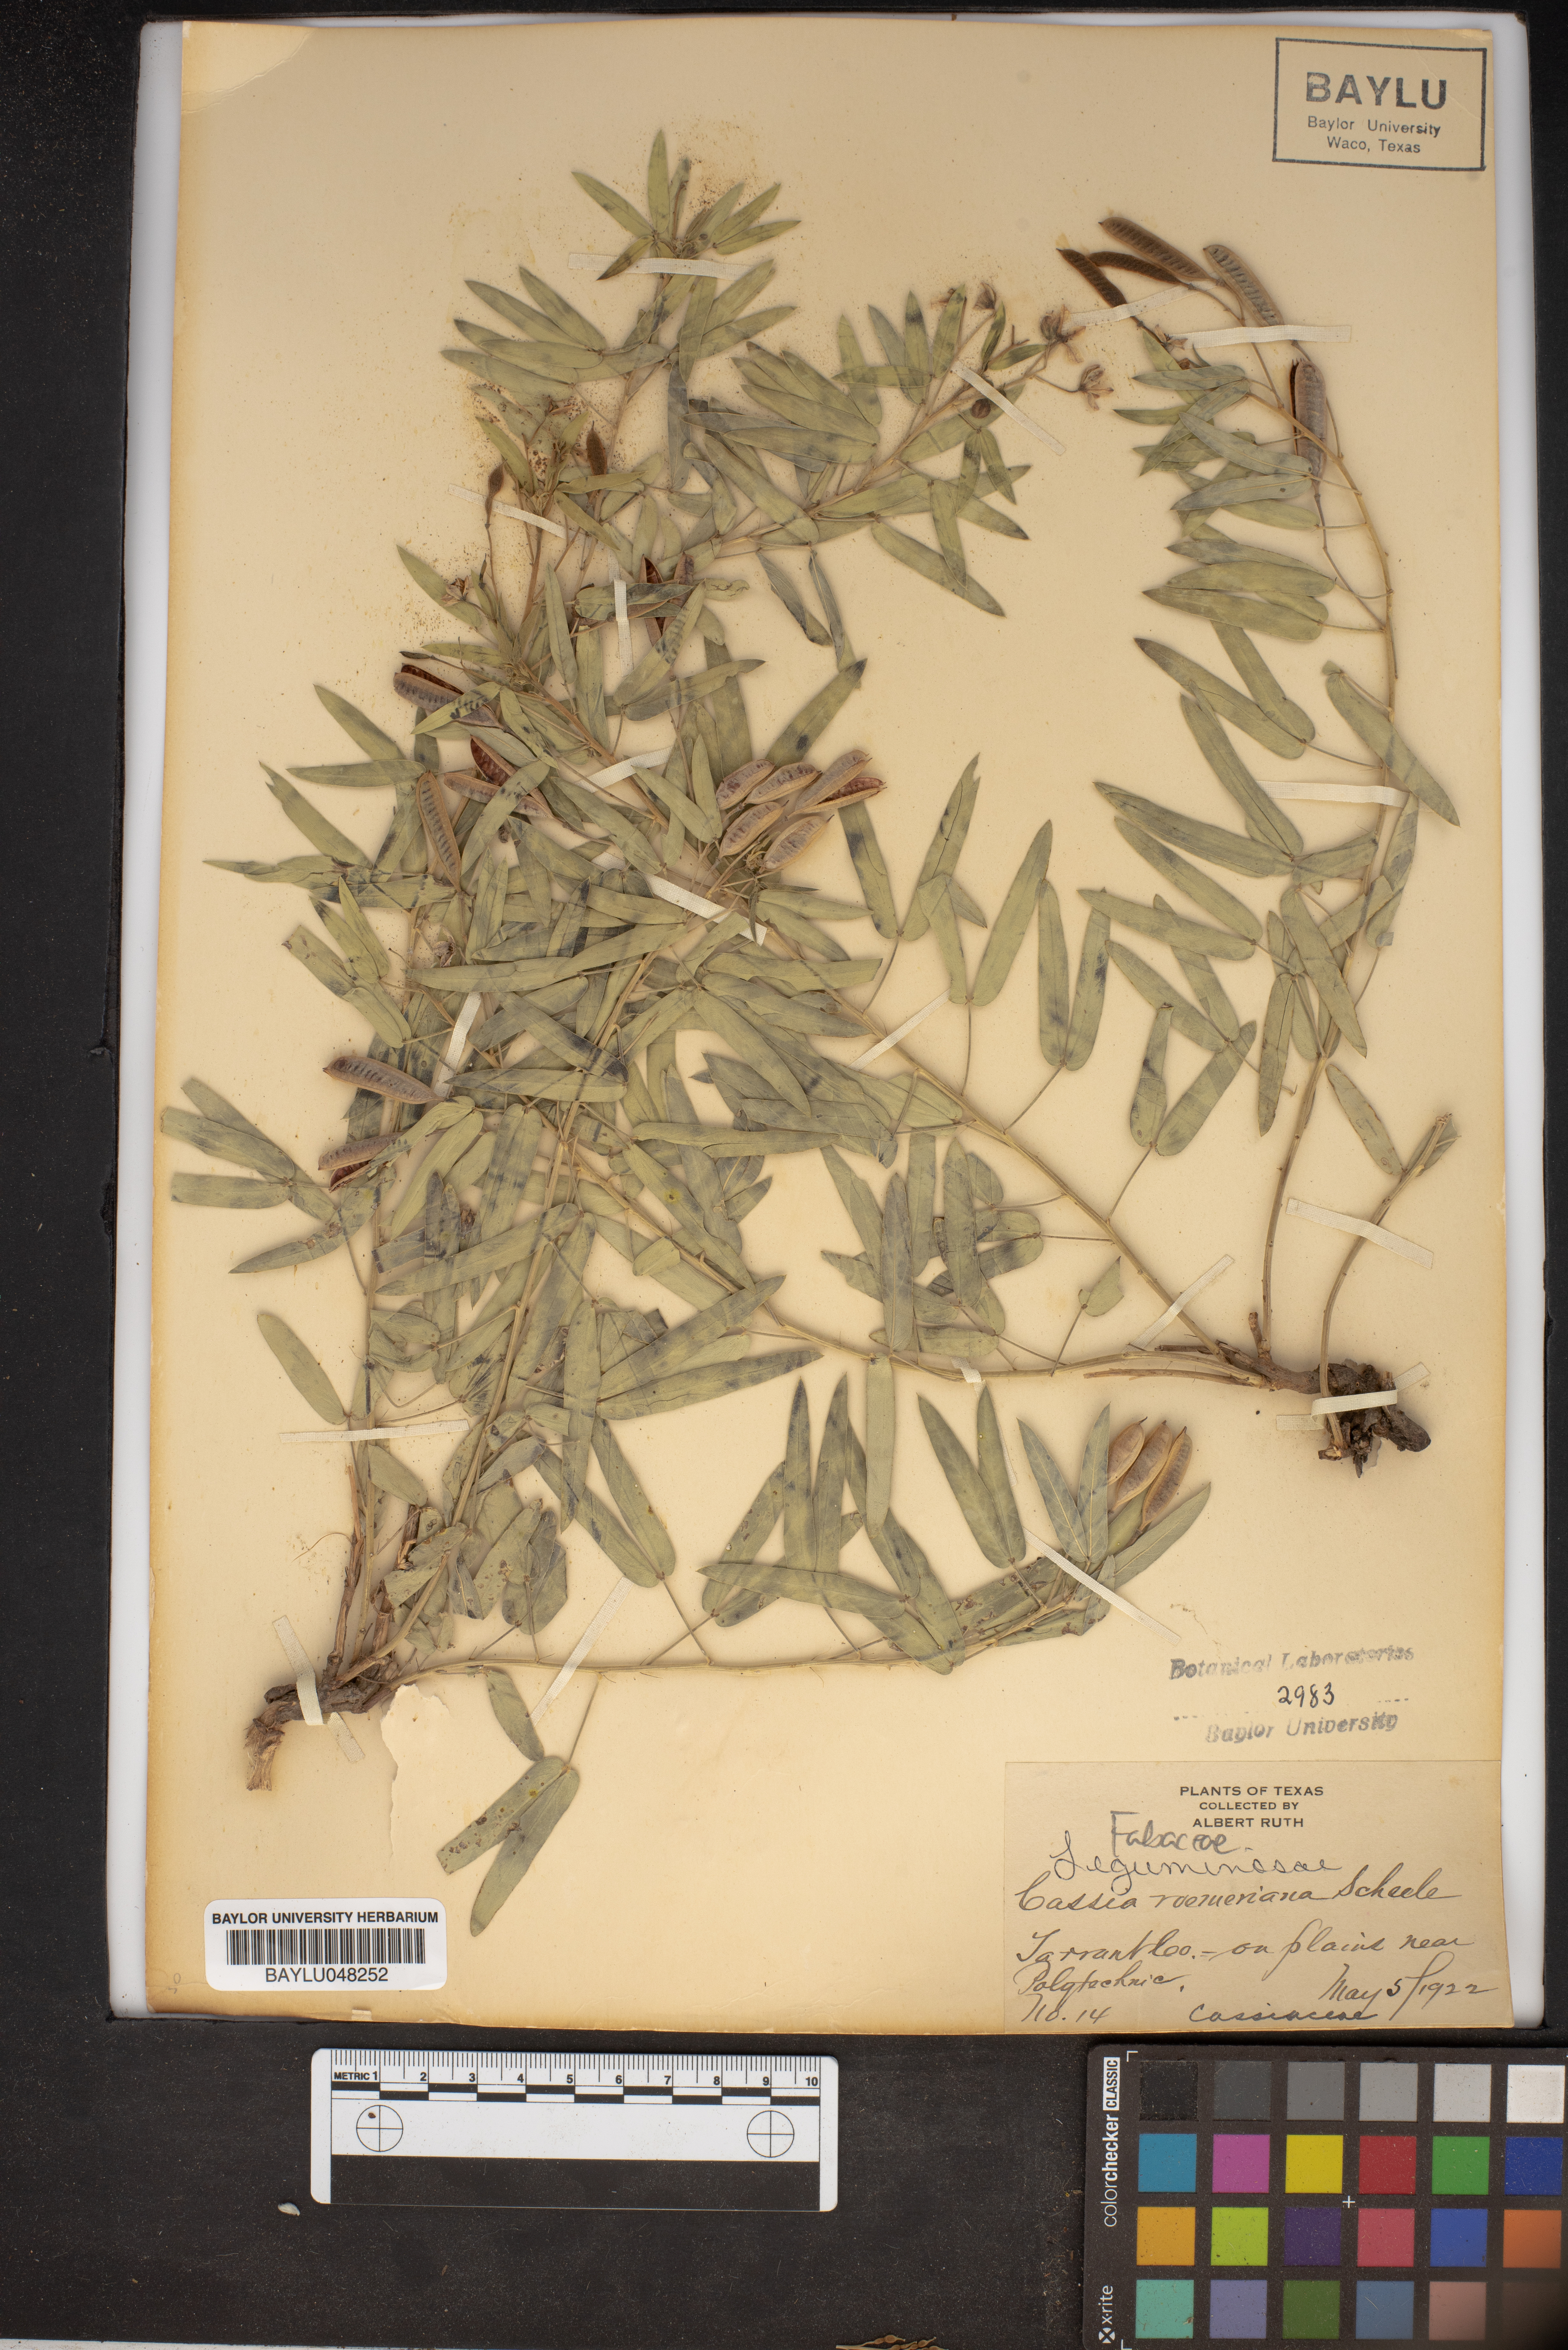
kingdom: Plantae
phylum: Tracheophyta
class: Magnoliopsida
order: Fabales
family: Fabaceae
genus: Senna
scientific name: Senna roemeriana
